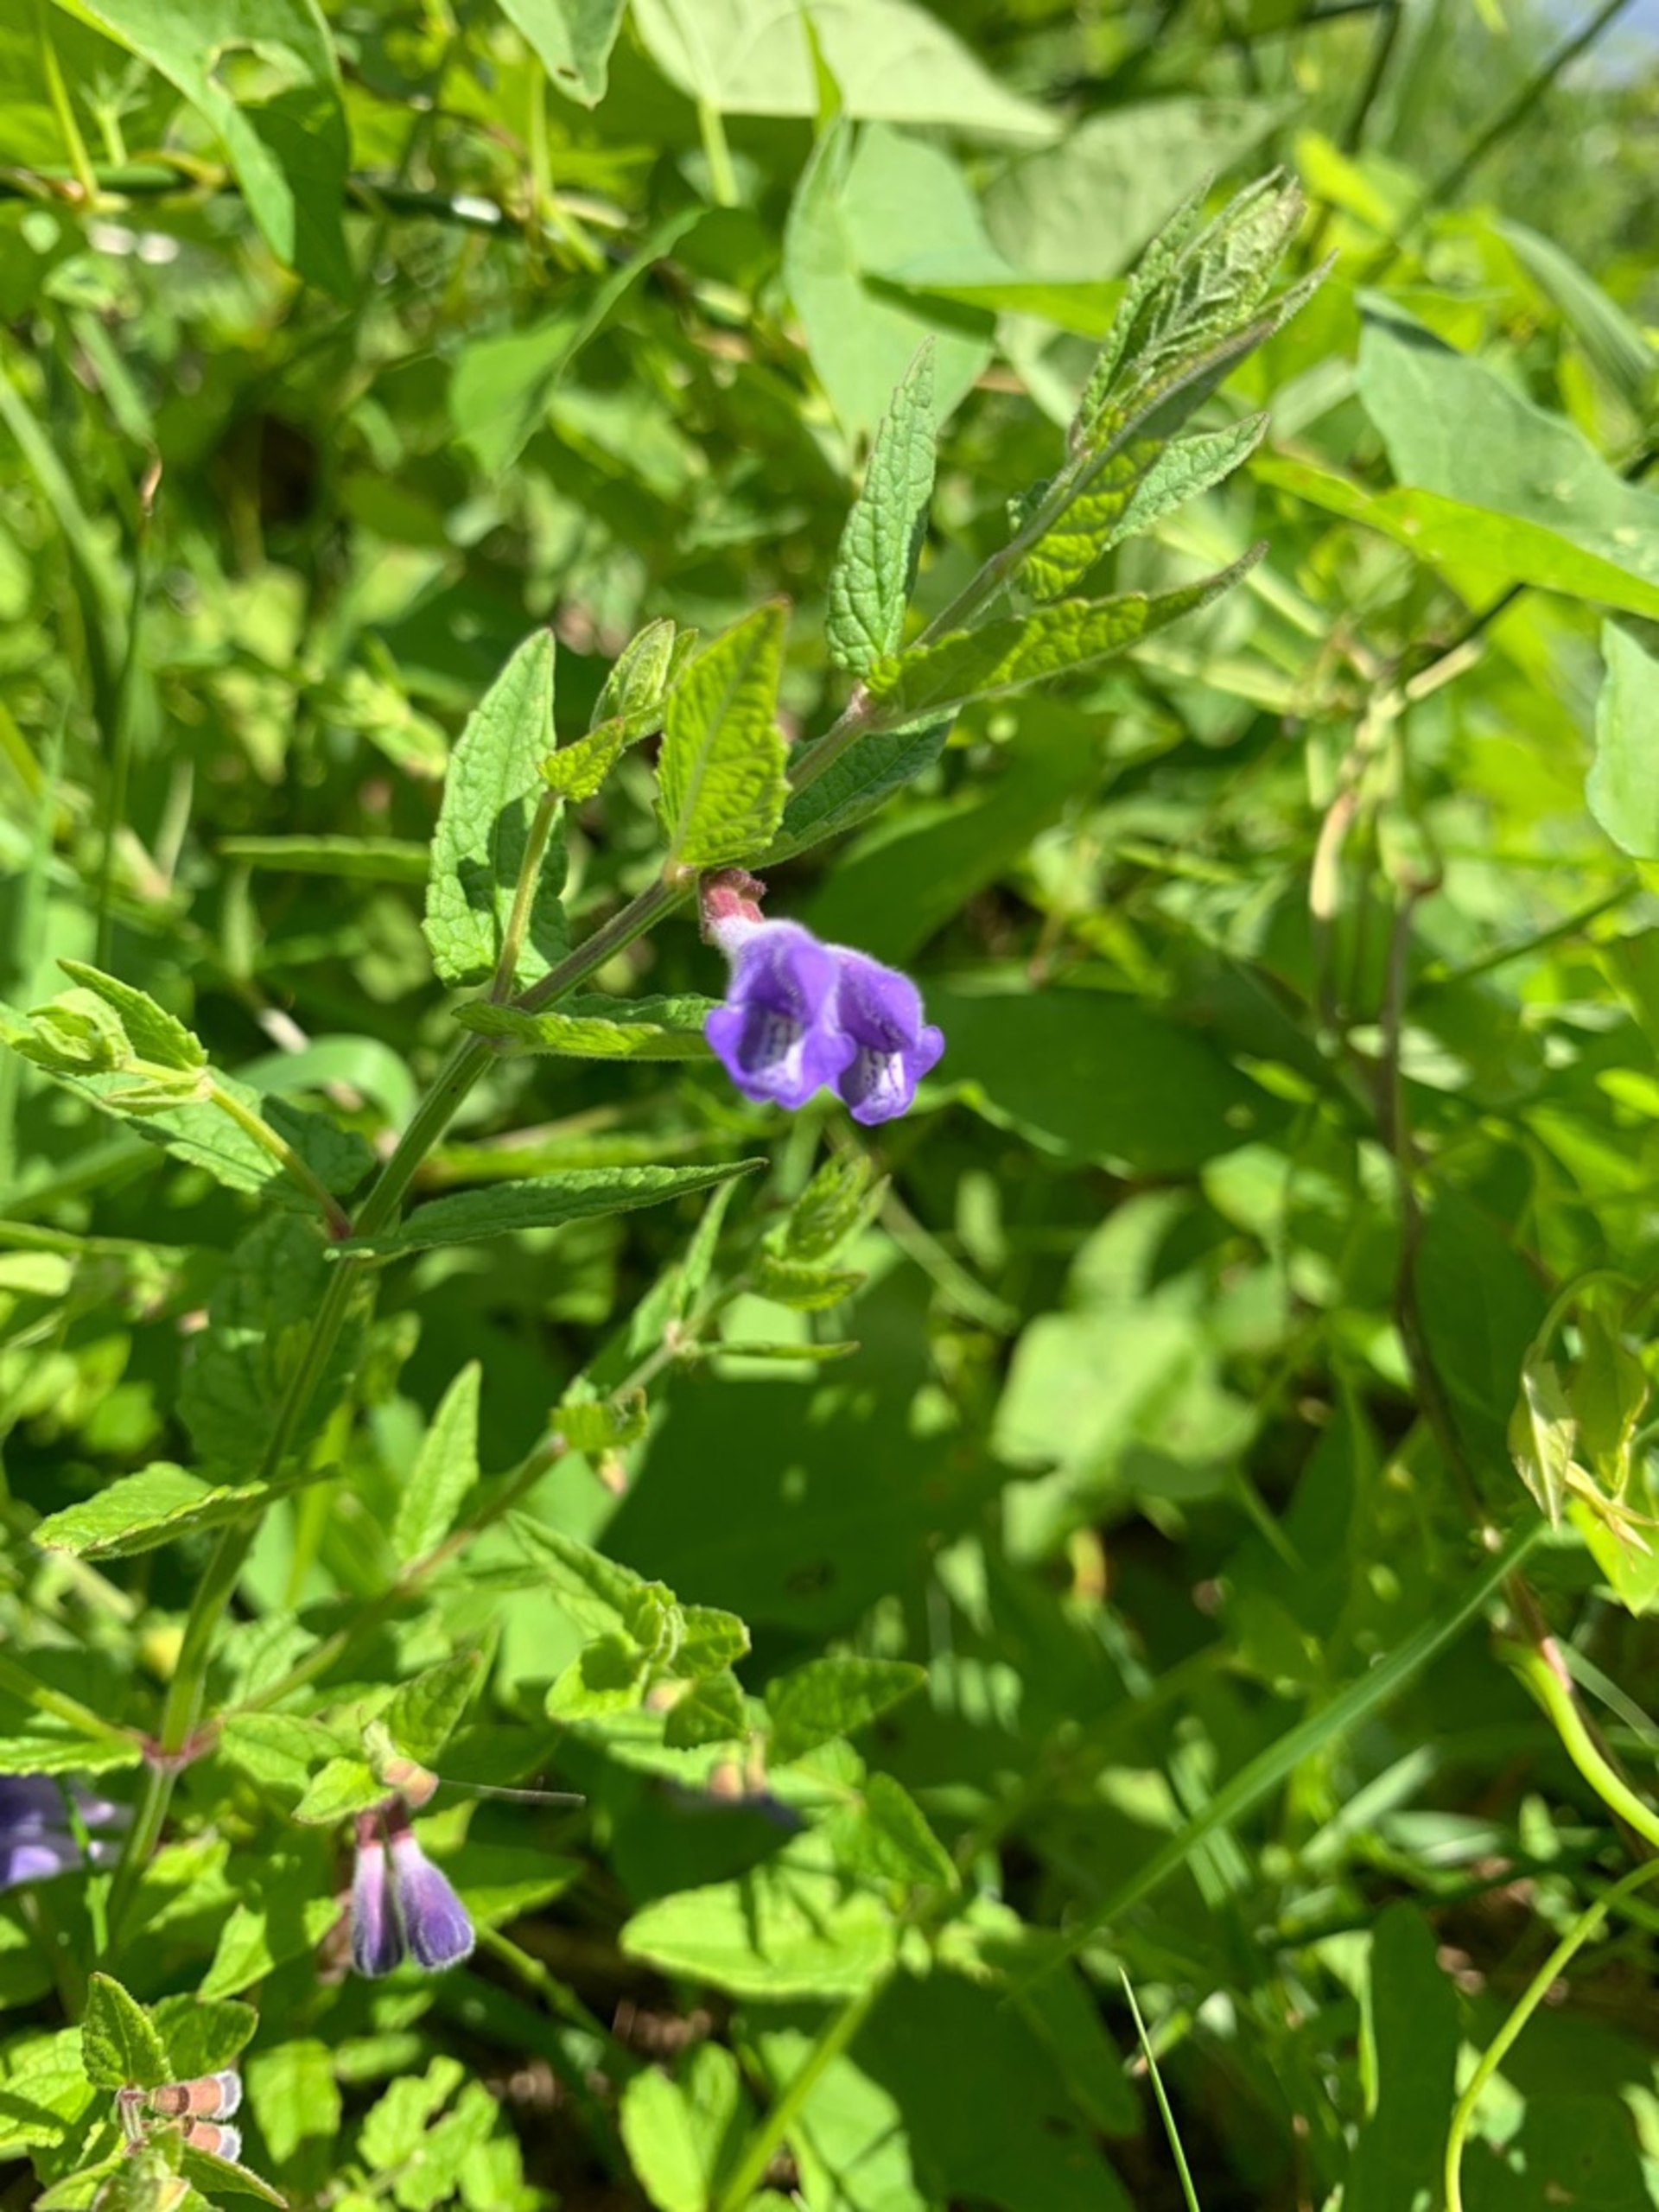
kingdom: Plantae
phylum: Tracheophyta
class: Magnoliopsida
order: Lamiales
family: Lamiaceae
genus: Scutellaria
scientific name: Scutellaria galericulata
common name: Almindelig skjolddrager
